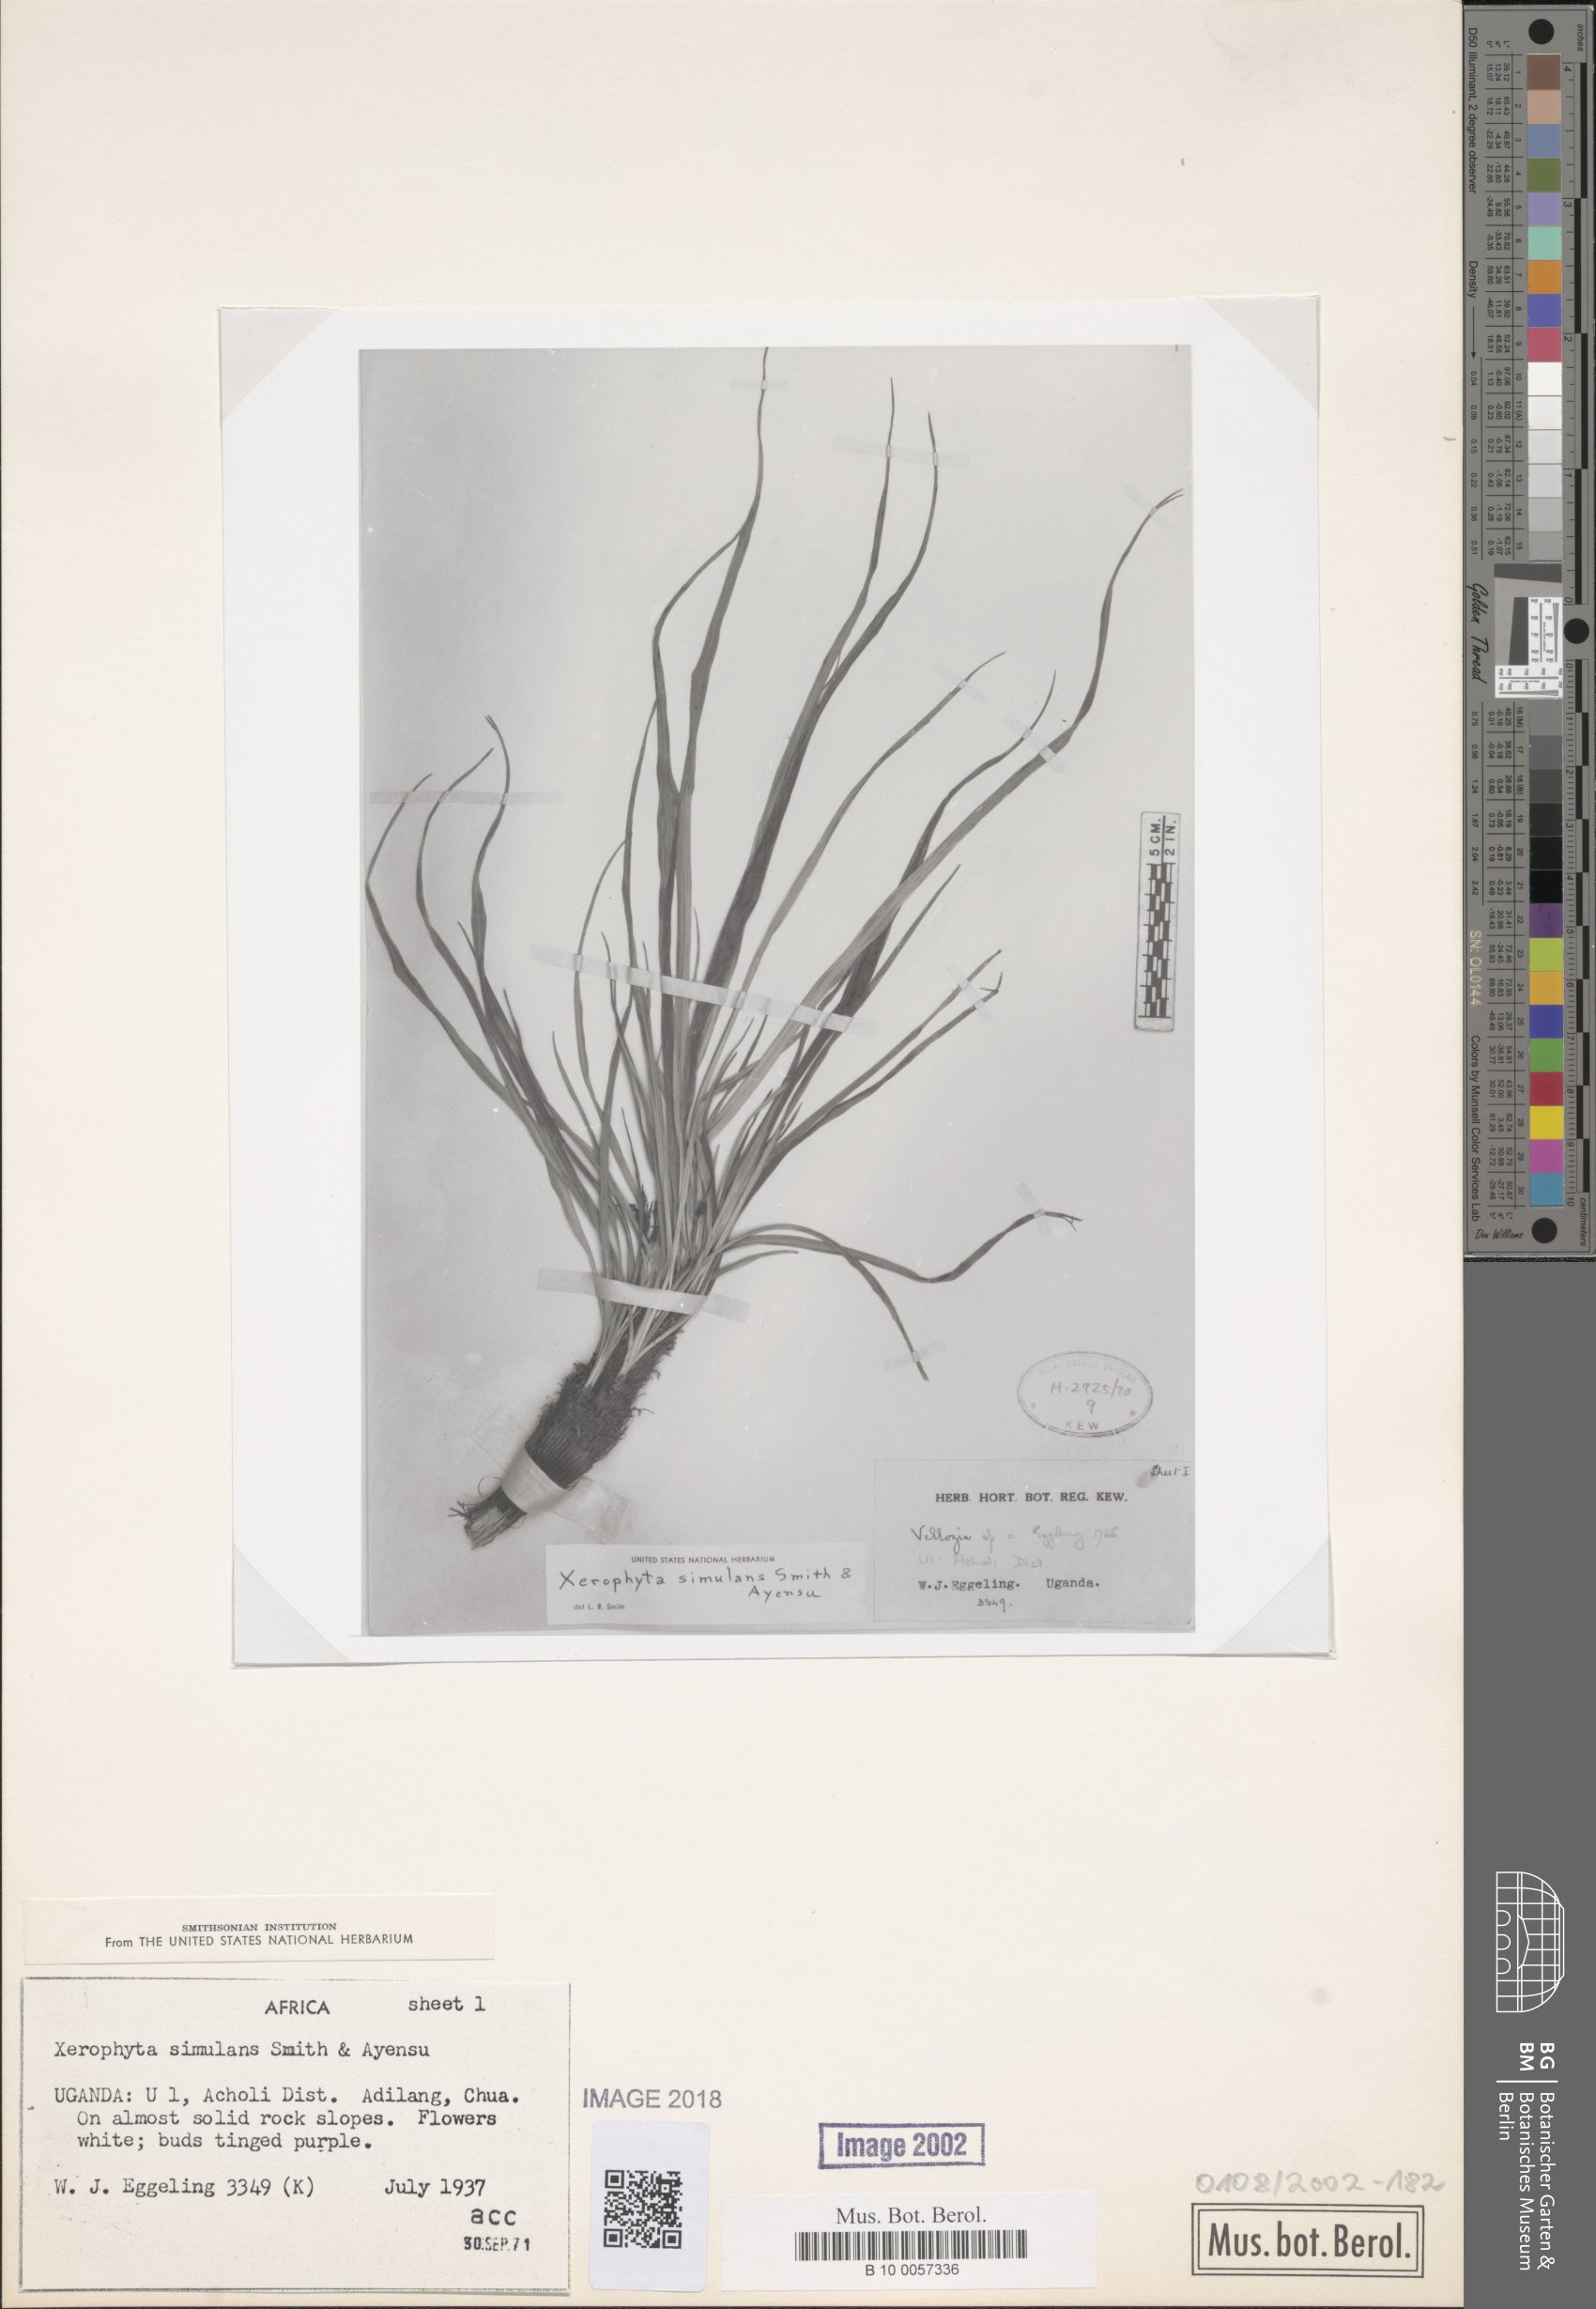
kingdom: Plantae
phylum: Tracheophyta
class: Liliopsida
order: Pandanales
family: Velloziaceae
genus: Xerophyta
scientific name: Xerophyta simulans
